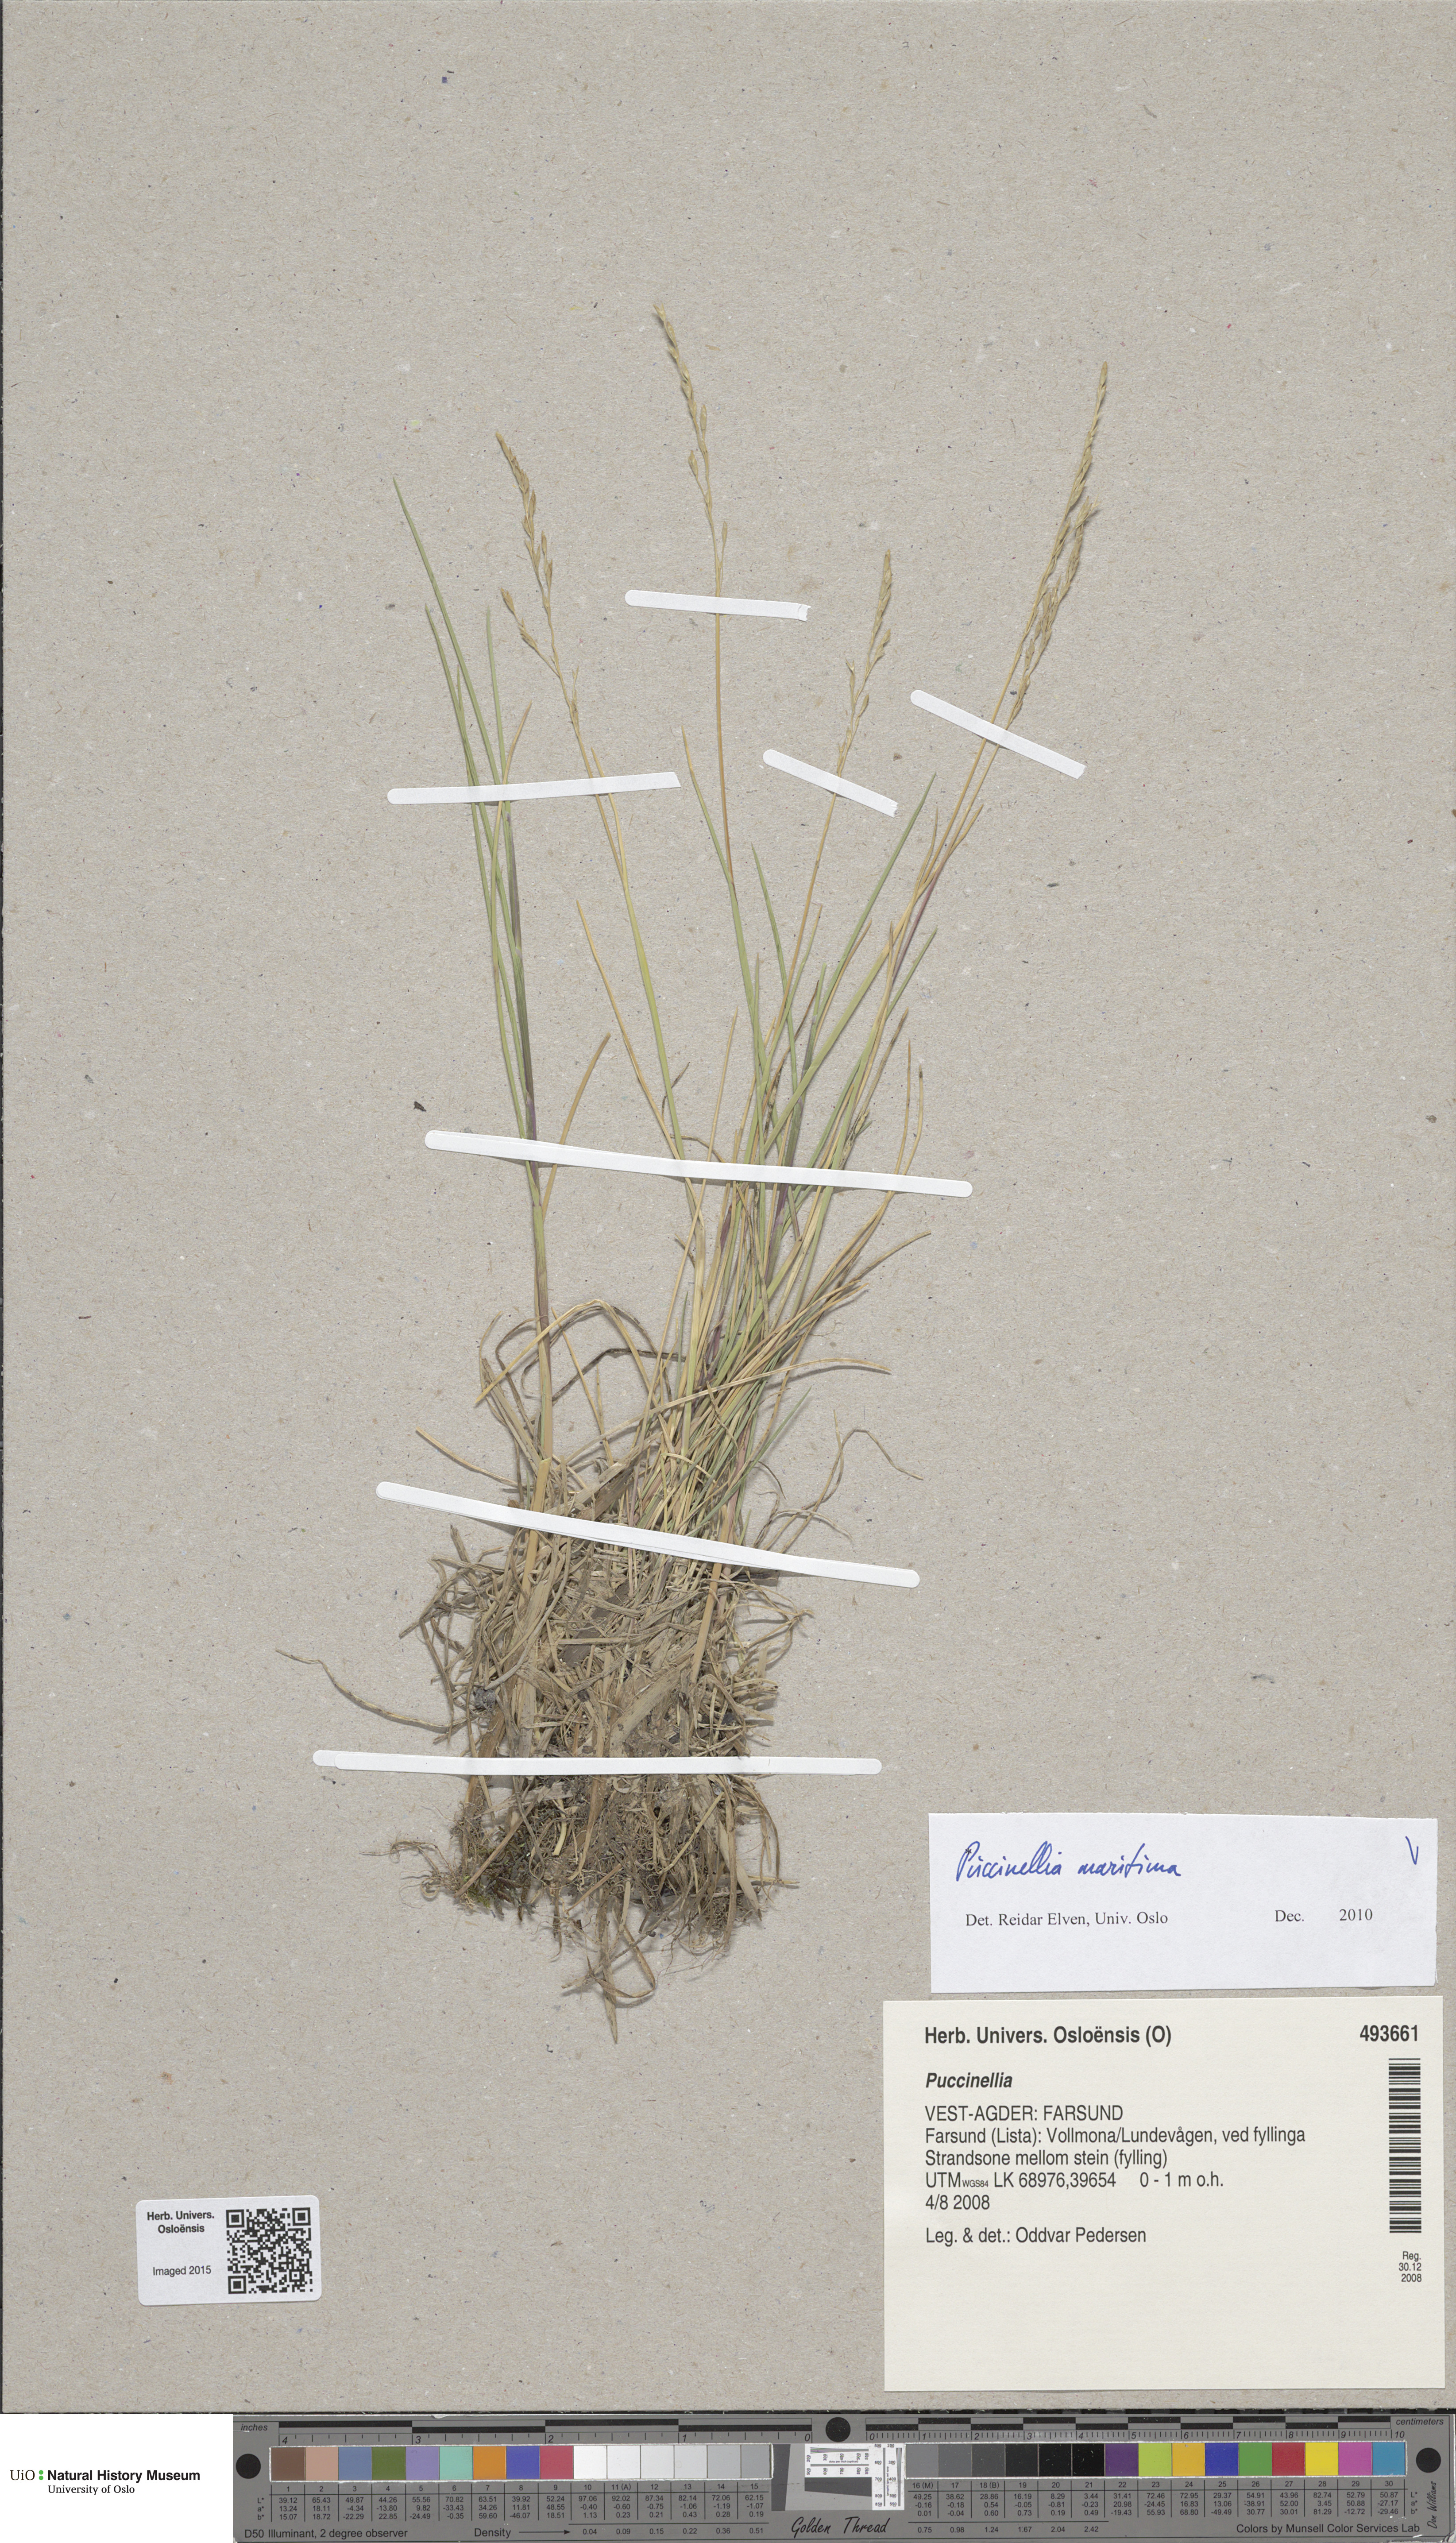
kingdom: Plantae
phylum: Tracheophyta
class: Liliopsida
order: Poales
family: Poaceae
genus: Puccinellia
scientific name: Puccinellia maritima
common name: Common saltmarsh grass
